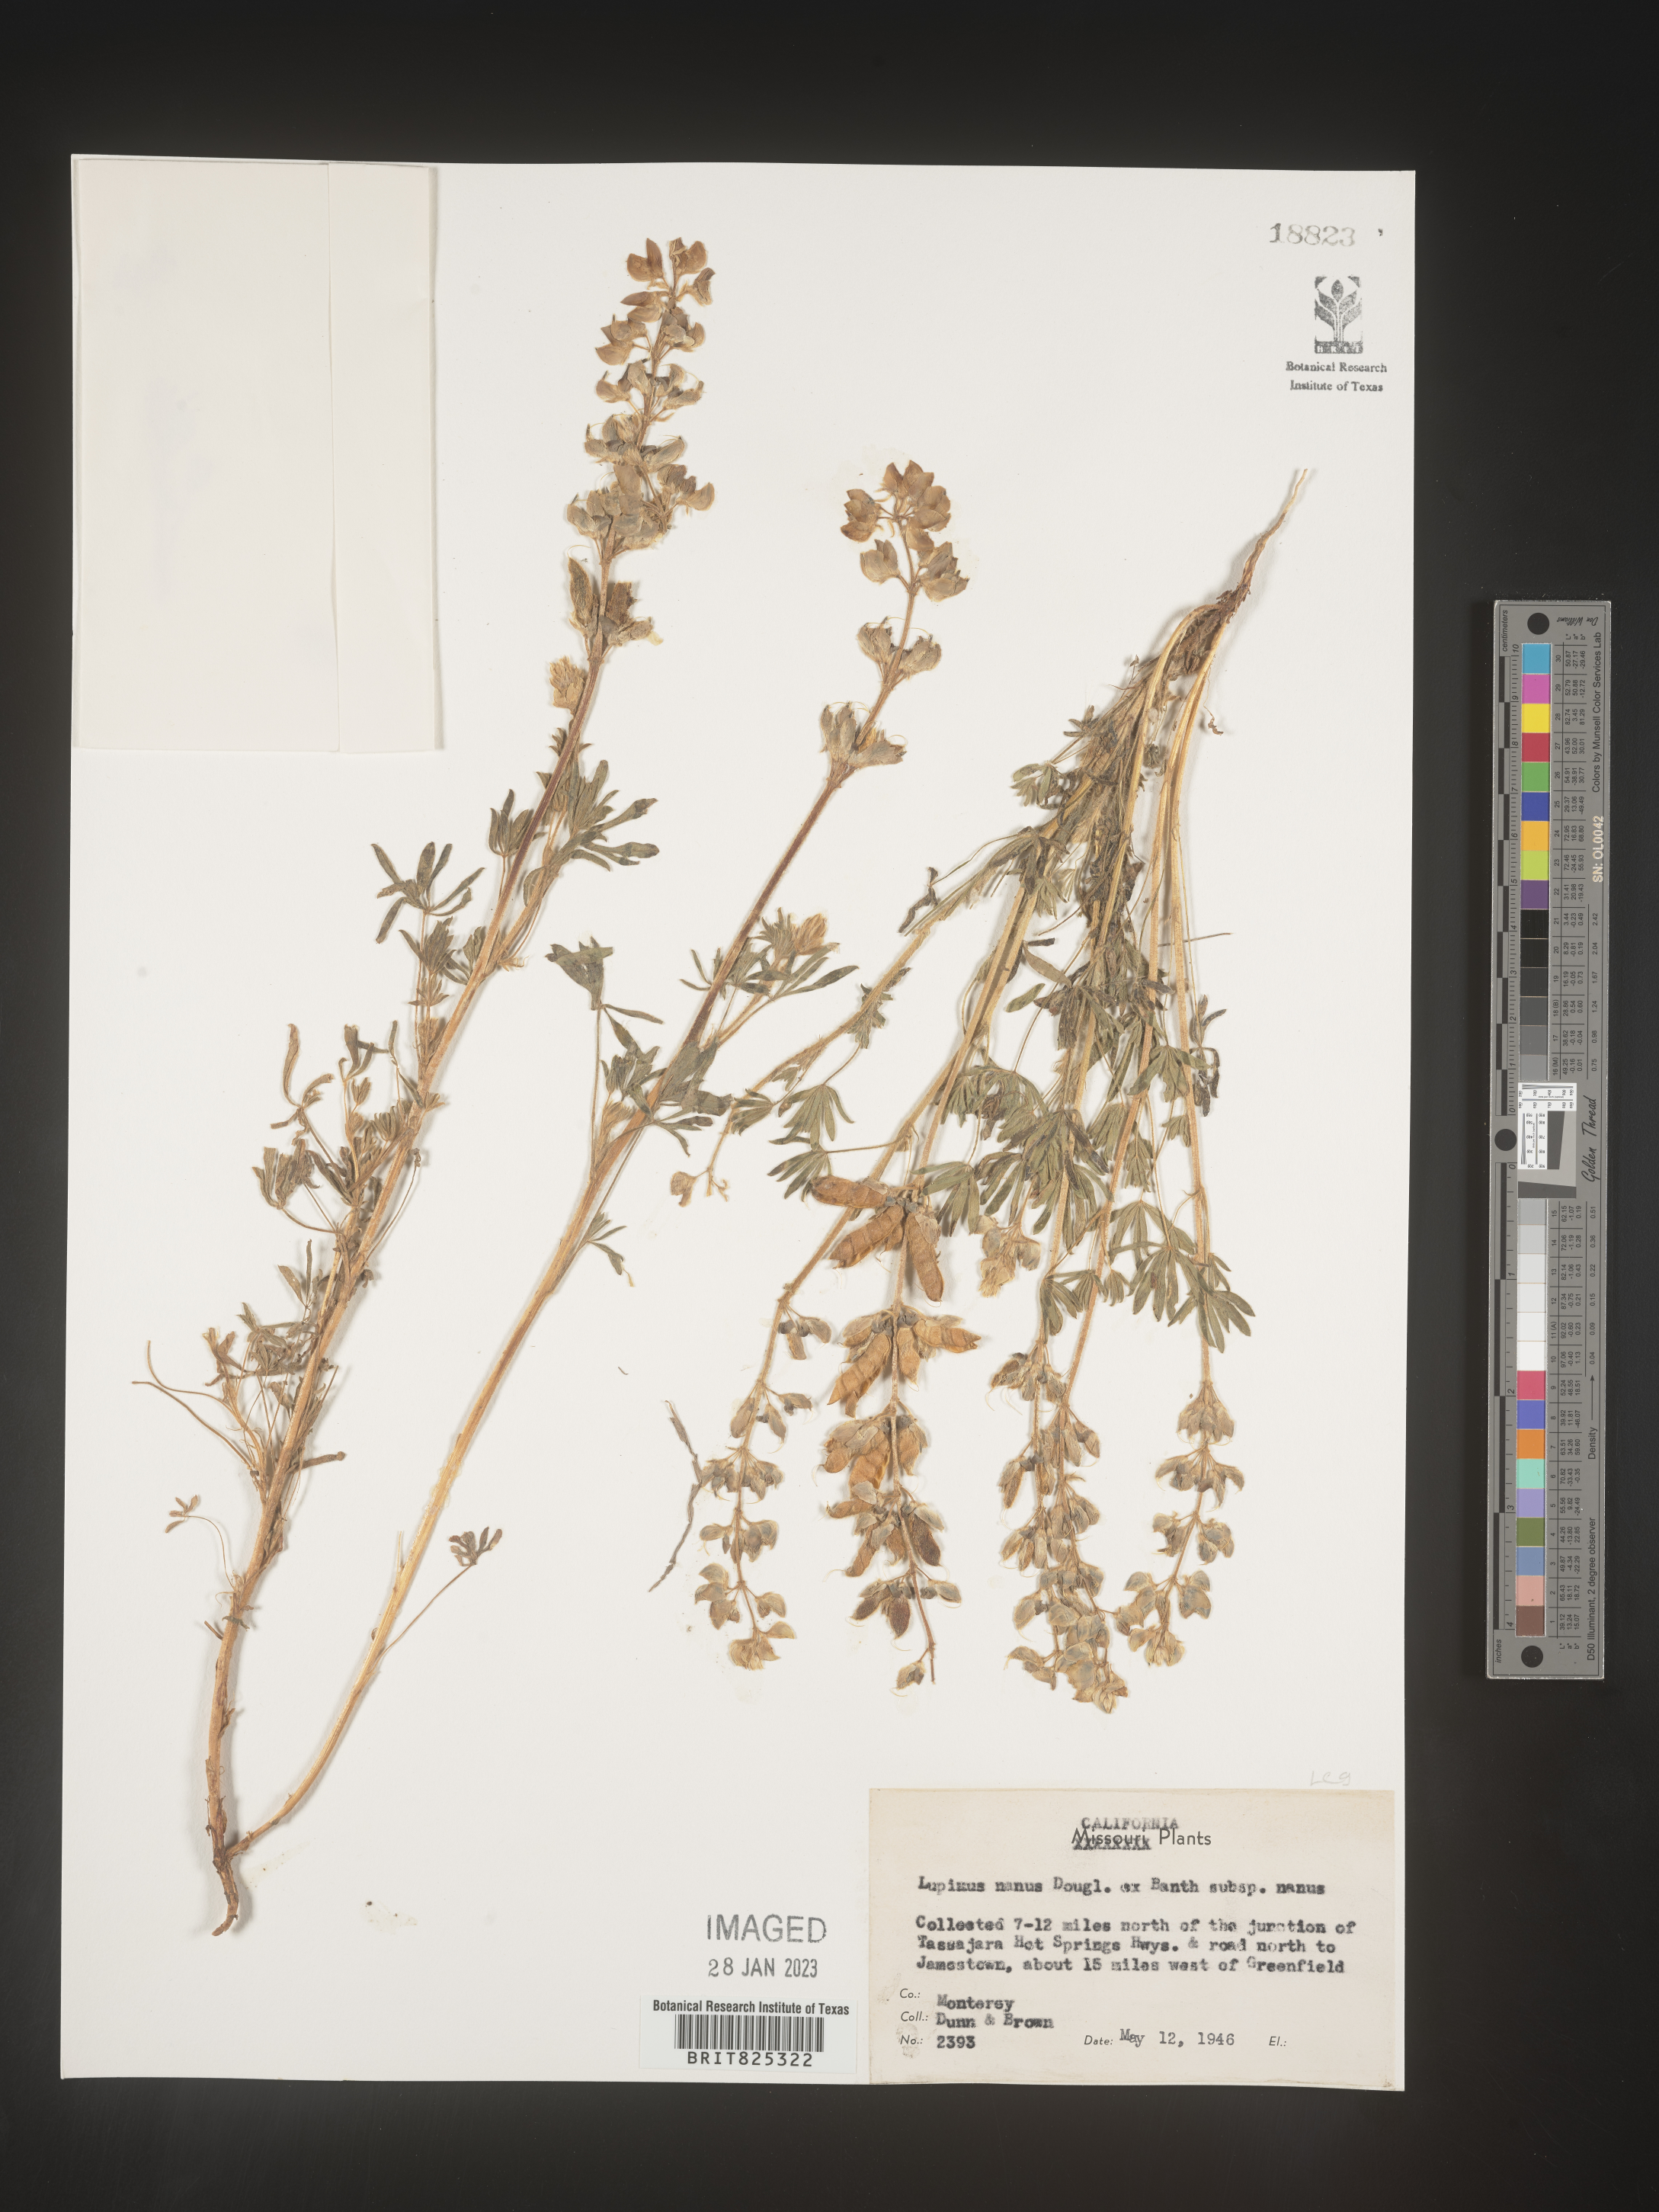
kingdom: Plantae
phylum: Tracheophyta
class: Magnoliopsida
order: Fabales
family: Fabaceae
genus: Lupinus
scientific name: Lupinus nanus
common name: Orean blue lupin
